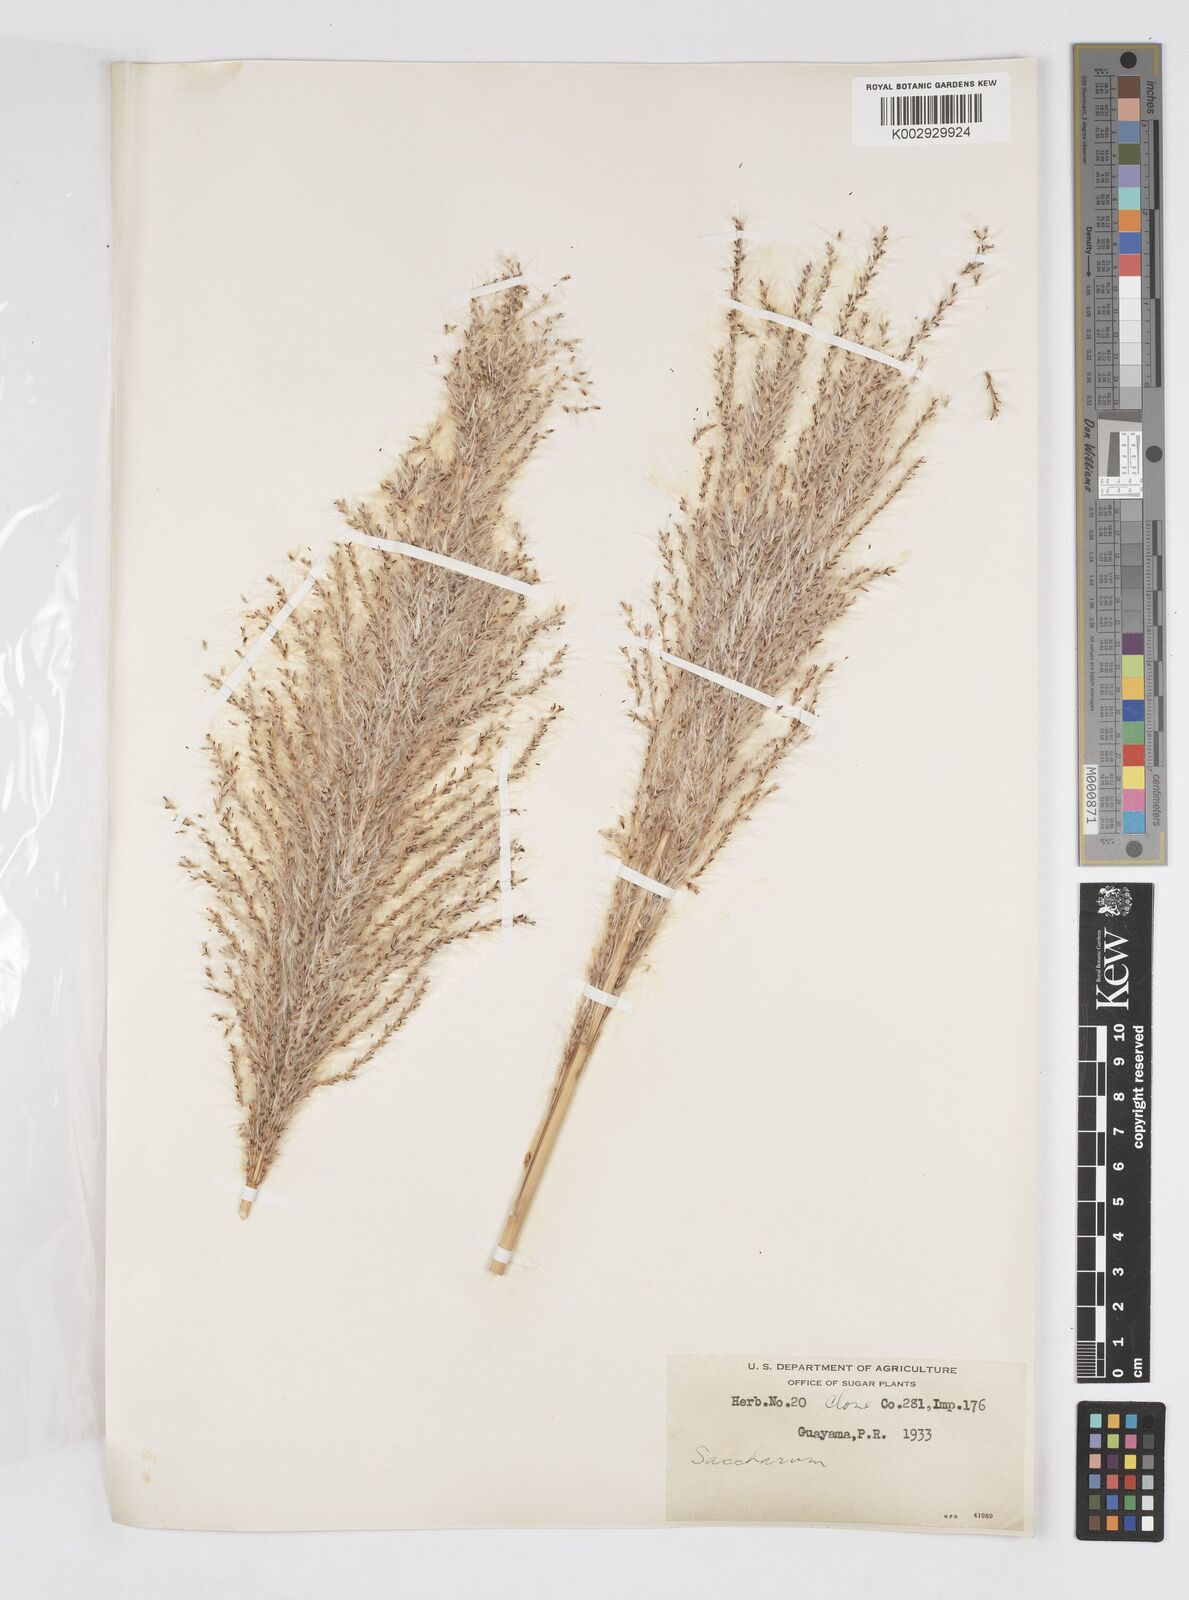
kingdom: Plantae
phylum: Tracheophyta
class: Liliopsida
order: Poales
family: Poaceae
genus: Saccharum
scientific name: Saccharum officinarum
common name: Sugarcane
